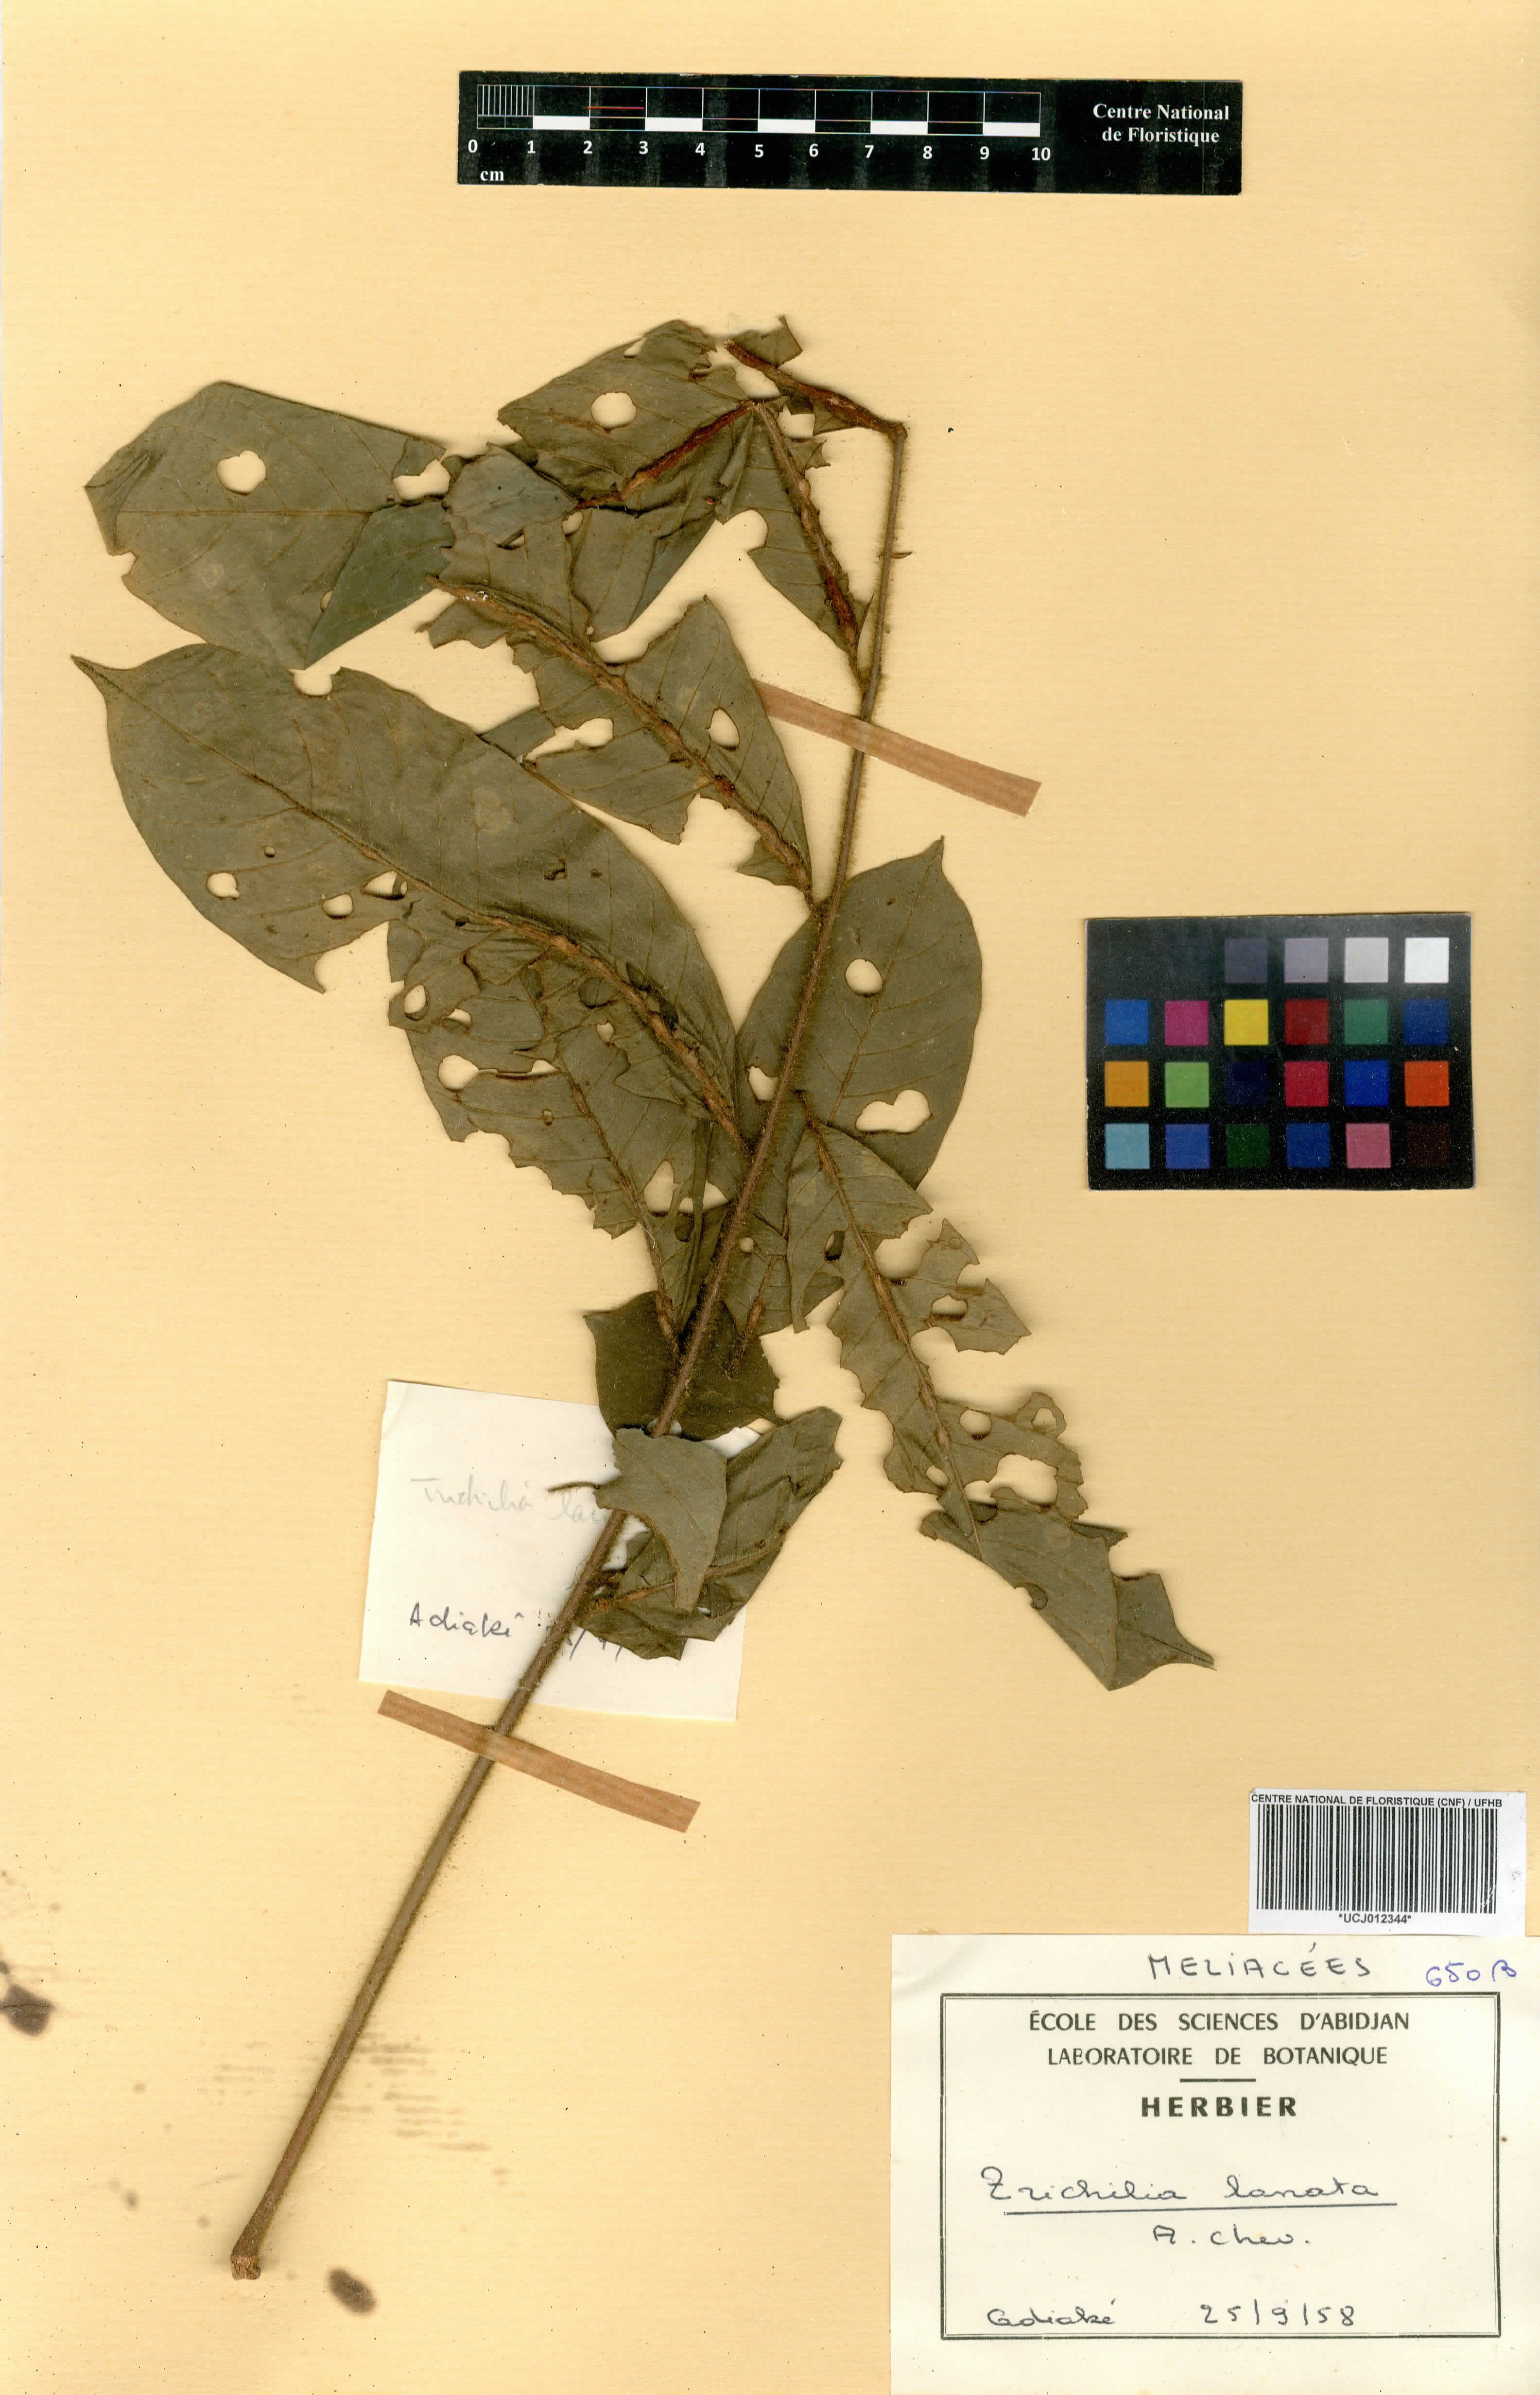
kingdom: Plantae
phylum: Tracheophyta
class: Magnoliopsida
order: Sapindales
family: Meliaceae
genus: Trichilia
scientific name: Trichilia tessmannii
